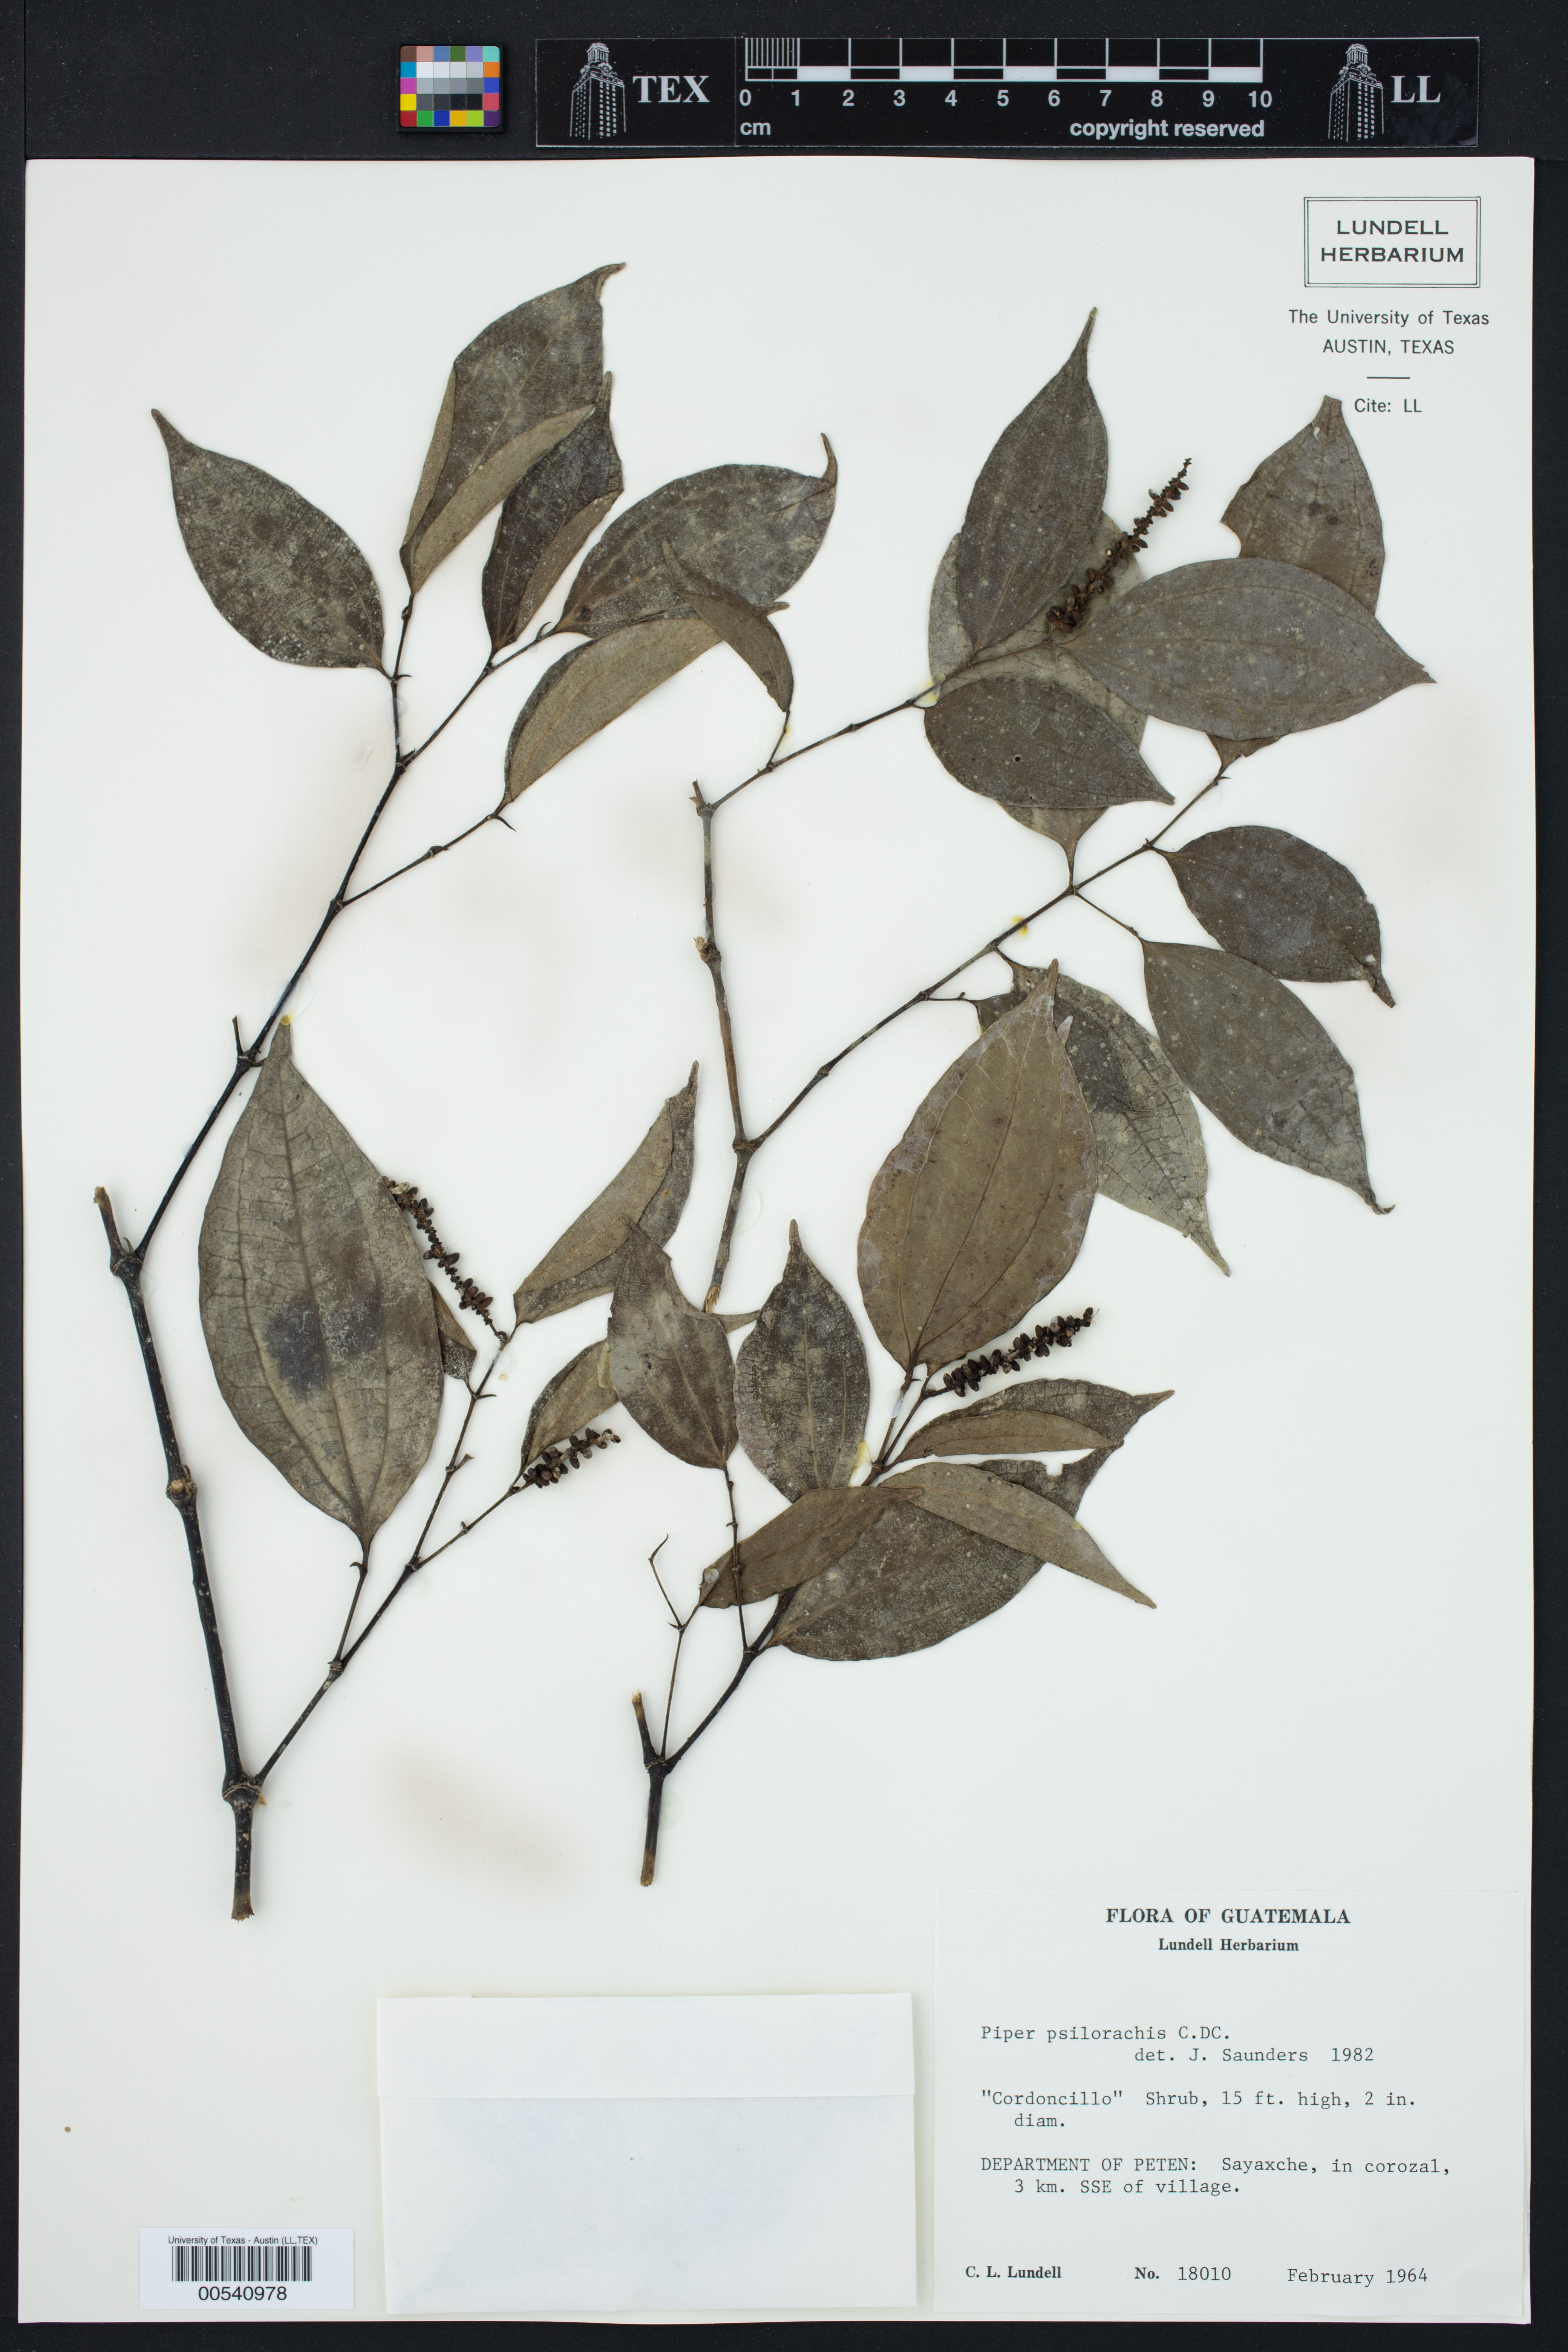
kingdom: Plantae
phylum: Tracheophyta
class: Magnoliopsida
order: Piperales
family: Piperaceae
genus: Piper
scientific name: Piper psilorhachis
